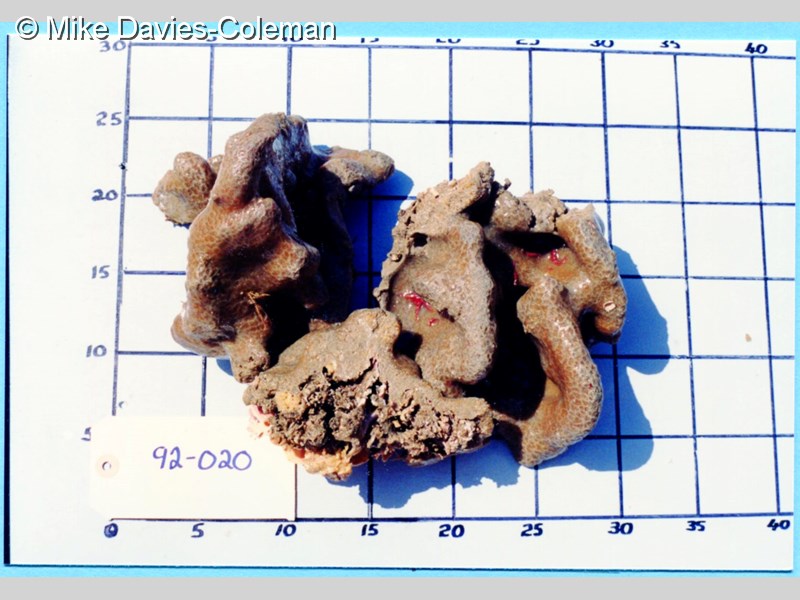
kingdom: Animalia
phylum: Chordata
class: Ascidiacea
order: Aplousobranchia
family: Polyclinidae
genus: Aplidium
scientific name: Aplidium
